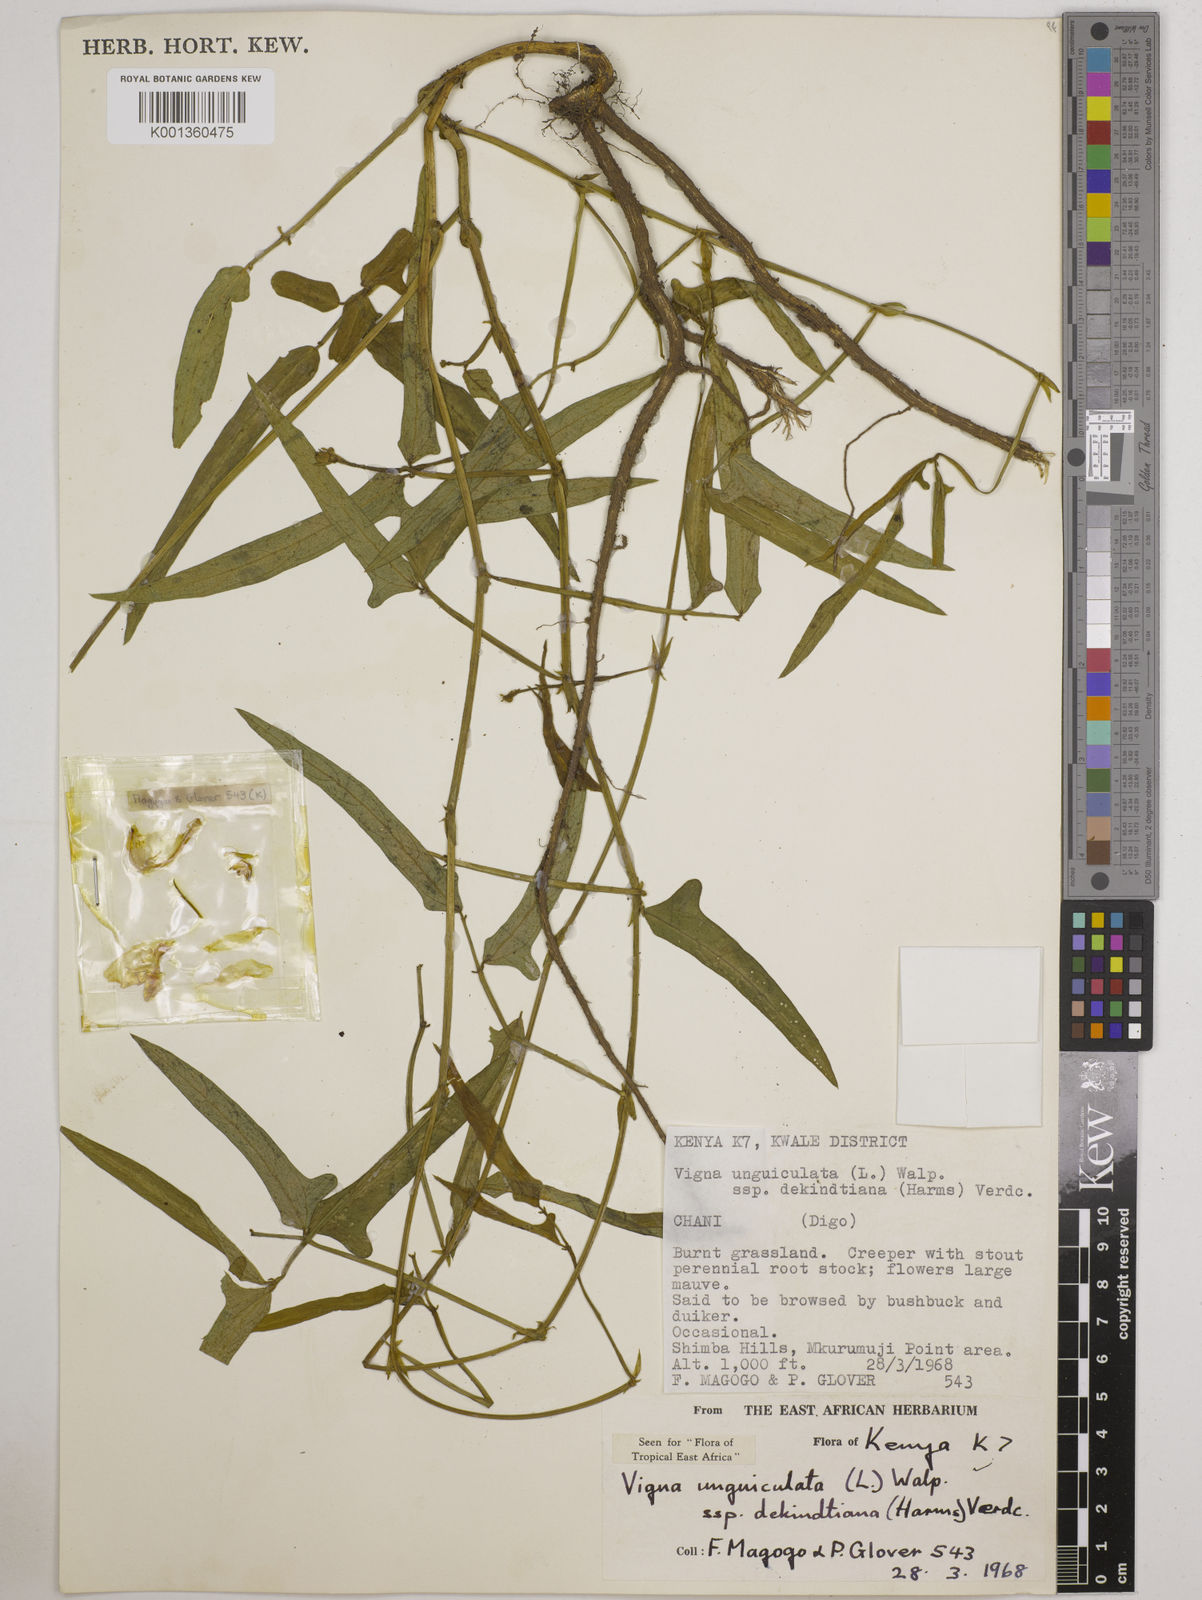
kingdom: Plantae
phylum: Tracheophyta
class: Magnoliopsida
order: Fabales
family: Fabaceae
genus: Vigna
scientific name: Vigna
